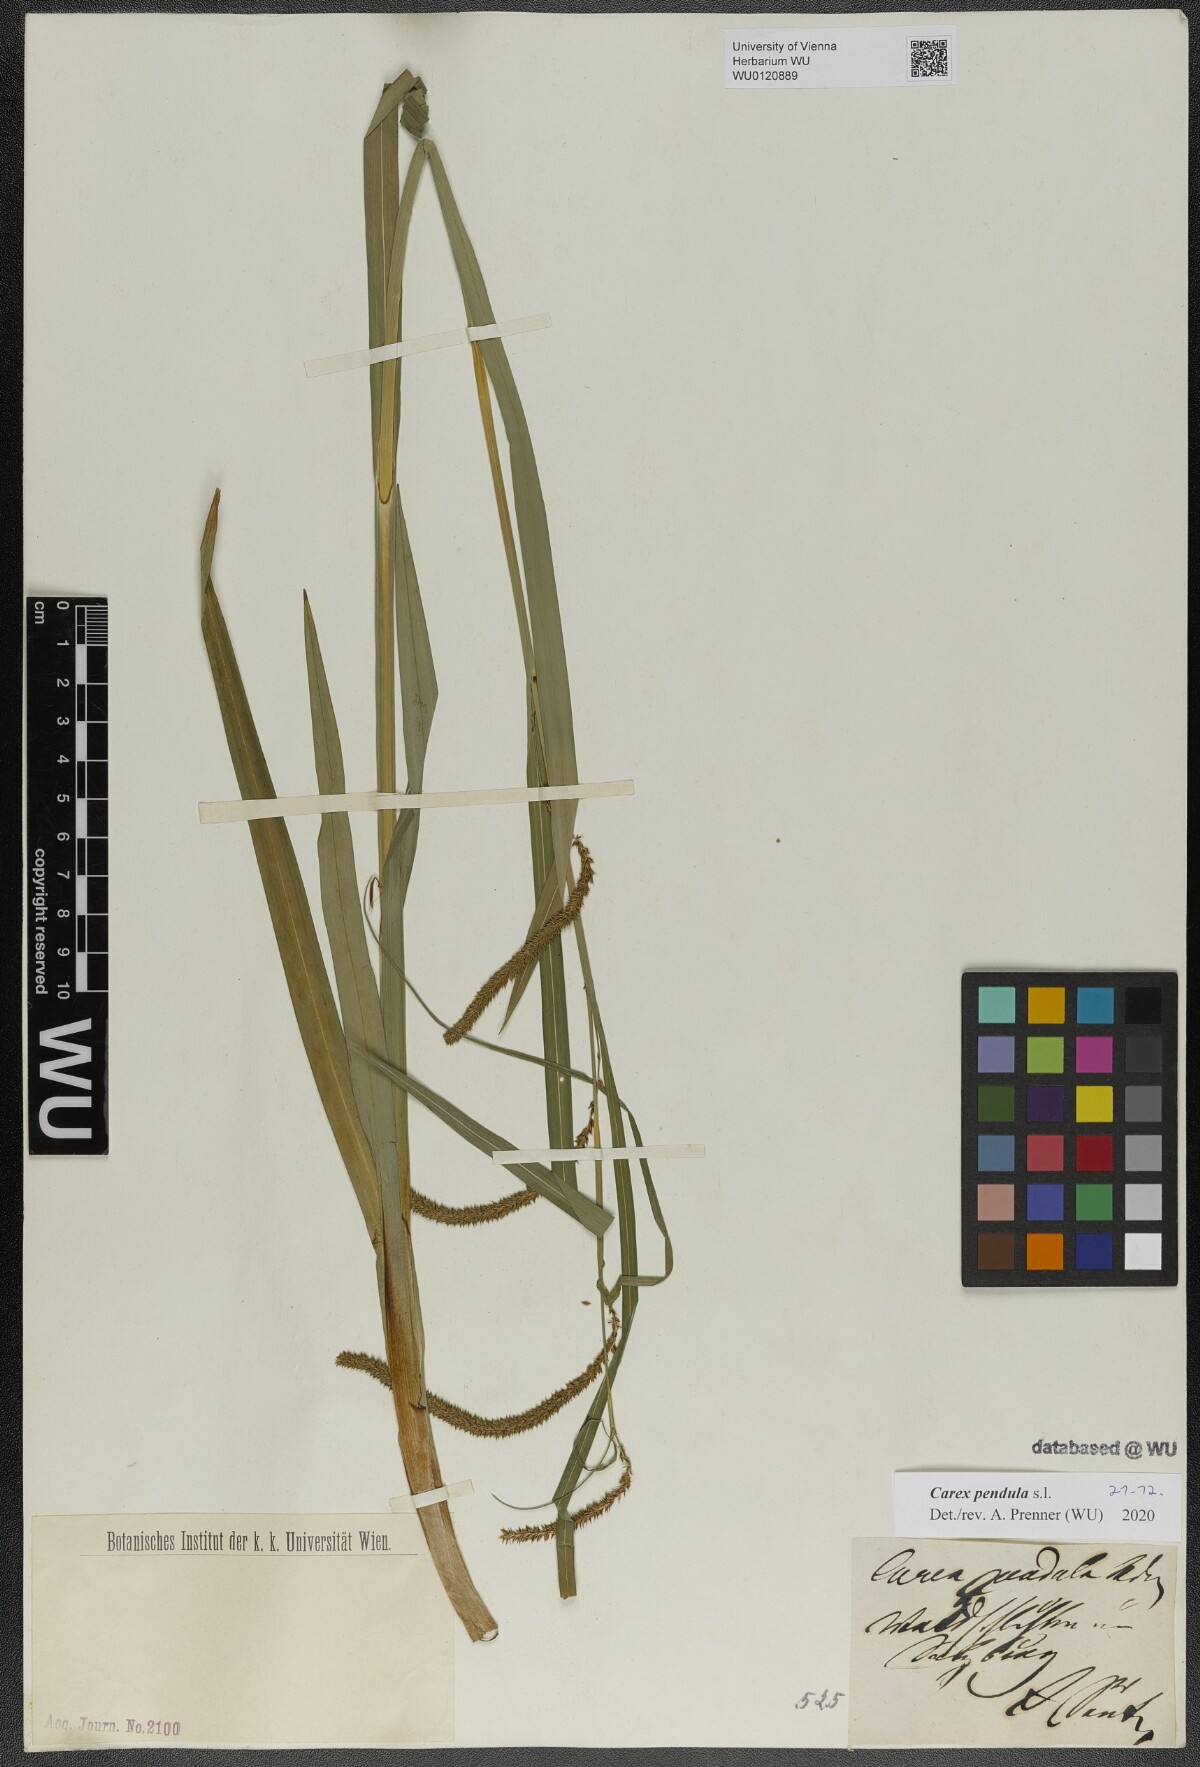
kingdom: Plantae
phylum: Tracheophyta
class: Liliopsida
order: Poales
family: Cyperaceae
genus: Carex
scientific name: Carex pendula
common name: Pendulous sedge
